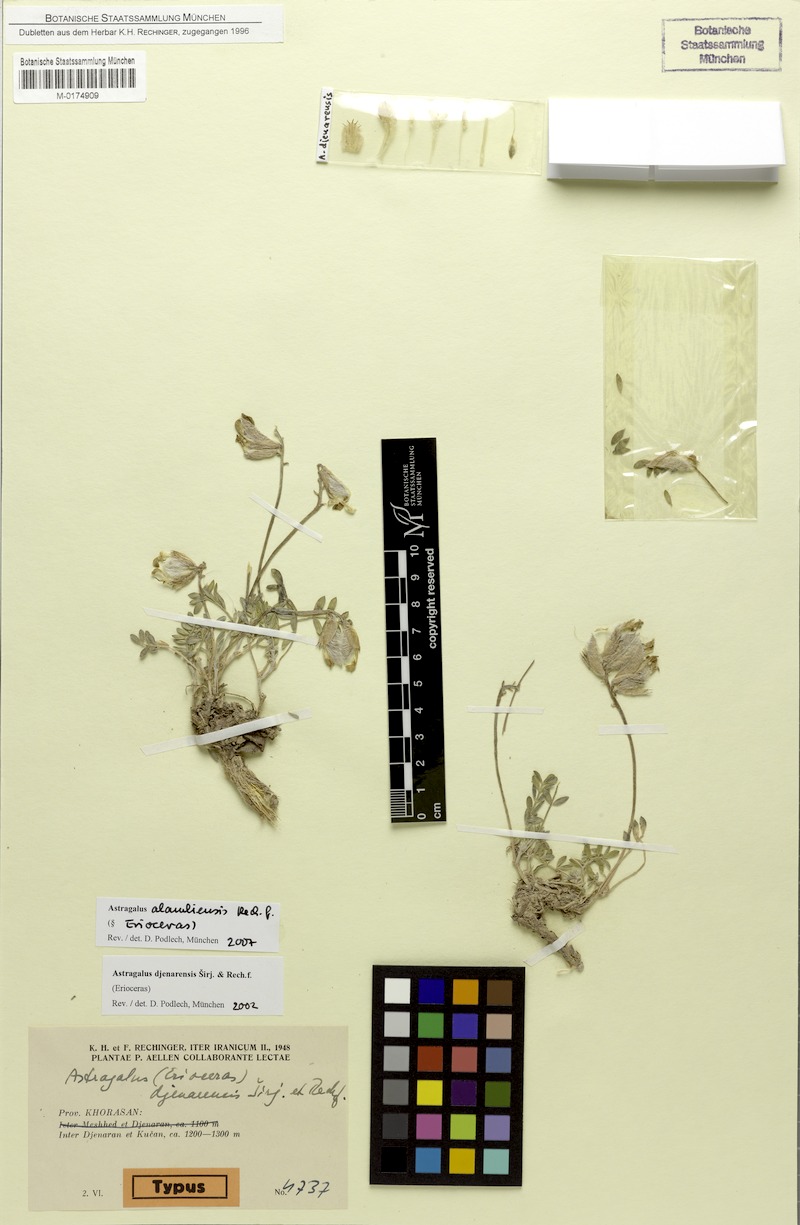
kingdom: Plantae
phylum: Tracheophyta
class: Magnoliopsida
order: Fabales
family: Fabaceae
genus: Astragalus
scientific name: Astragalus alamliensis
